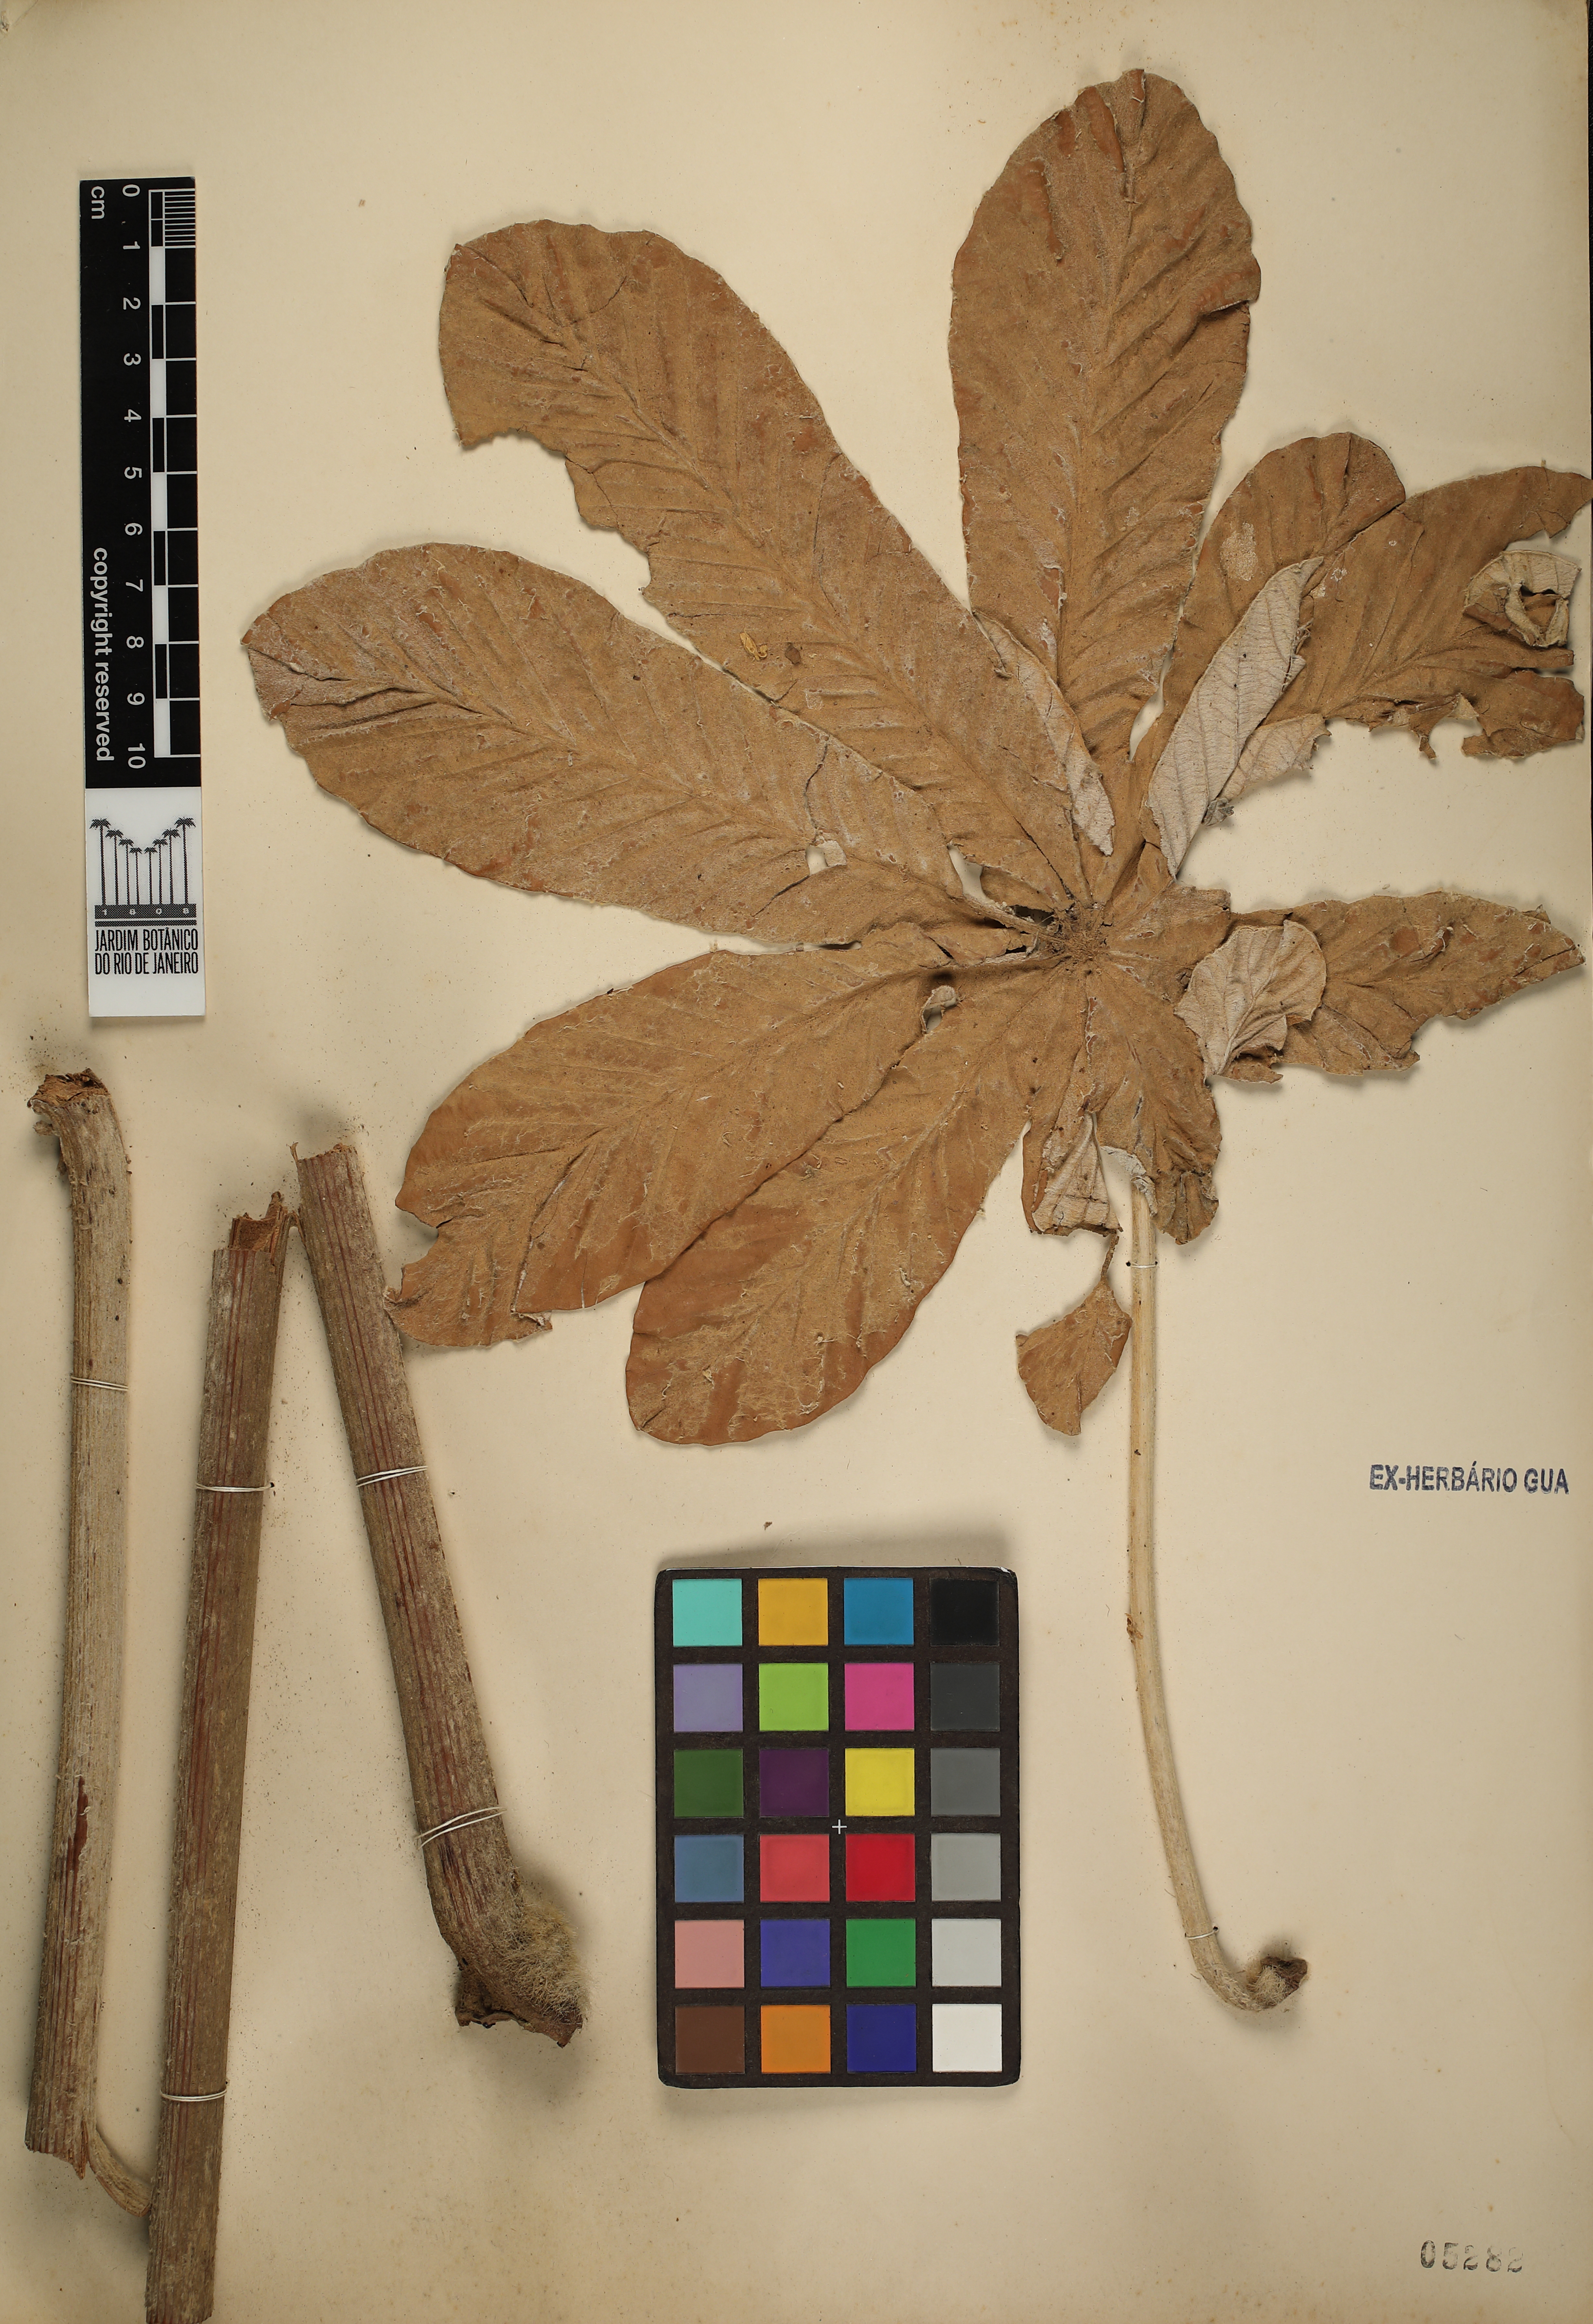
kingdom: Plantae
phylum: Tracheophyta
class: Magnoliopsida
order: Rosales
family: Urticaceae
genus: Cecropia
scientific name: Cecropia hololeuca
